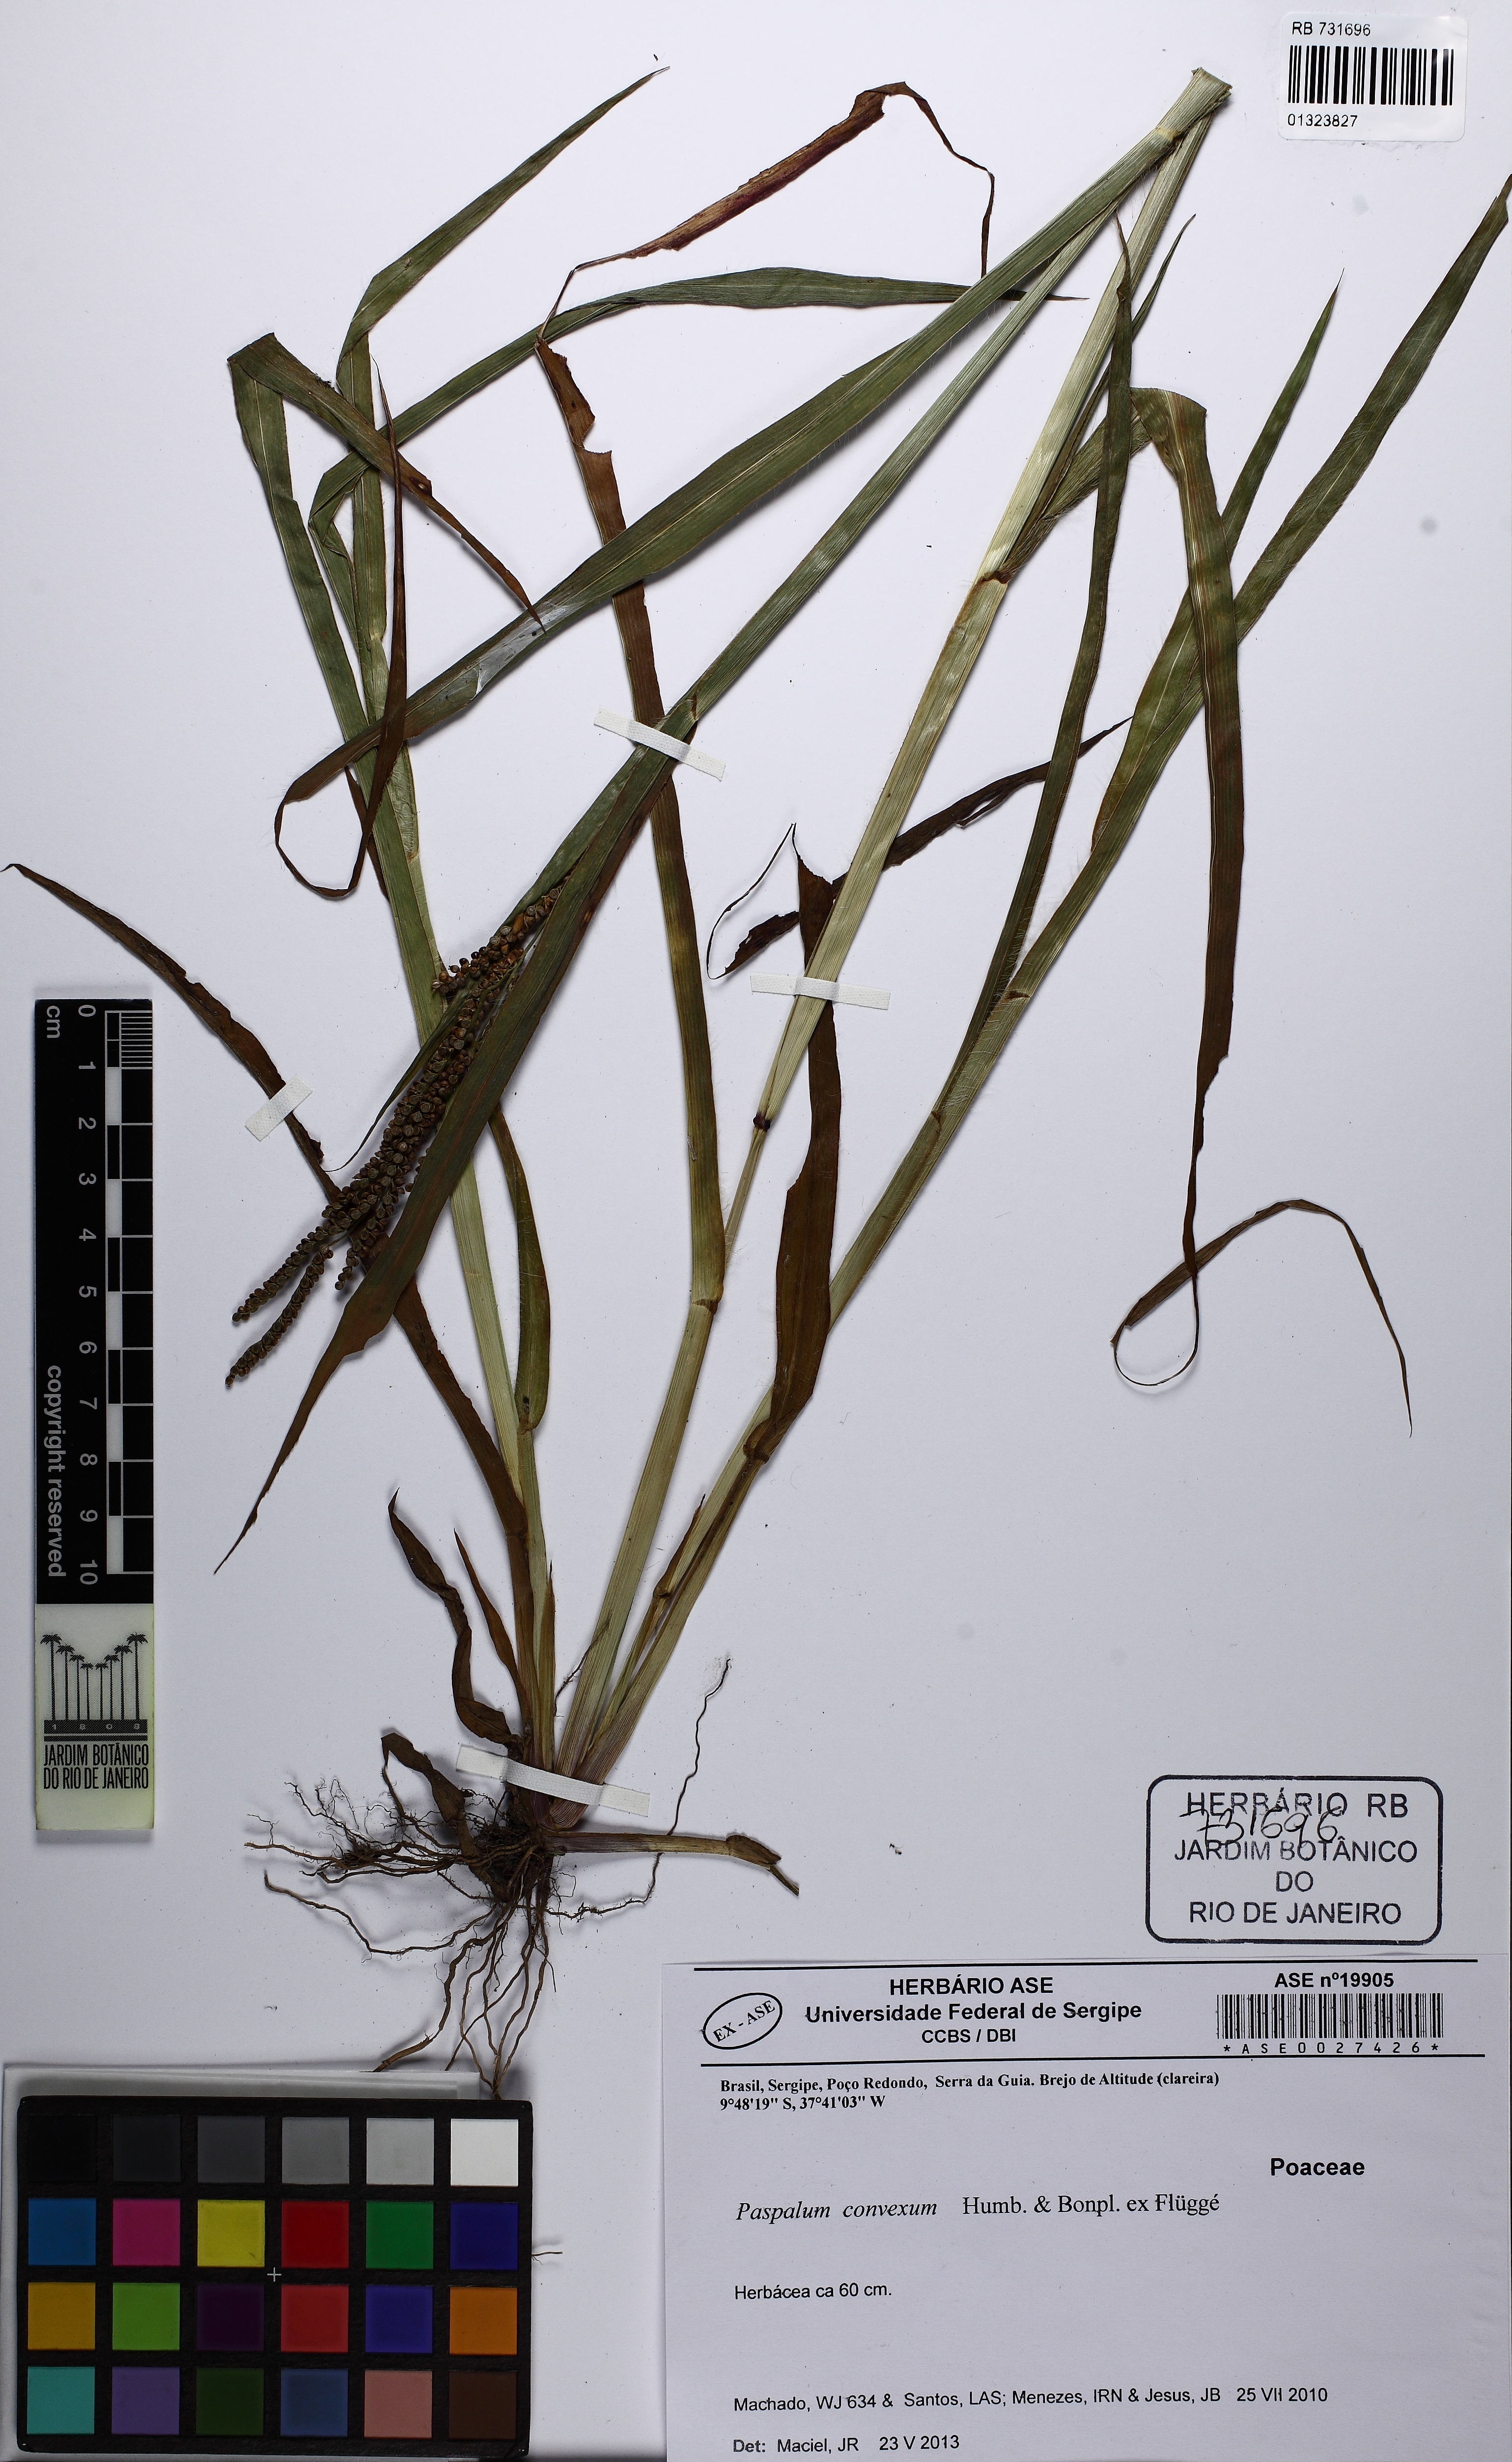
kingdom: Plantae
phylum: Tracheophyta
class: Liliopsida
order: Poales
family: Poaceae
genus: Paspalum
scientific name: Paspalum convexum
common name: Latin american crowngrass
